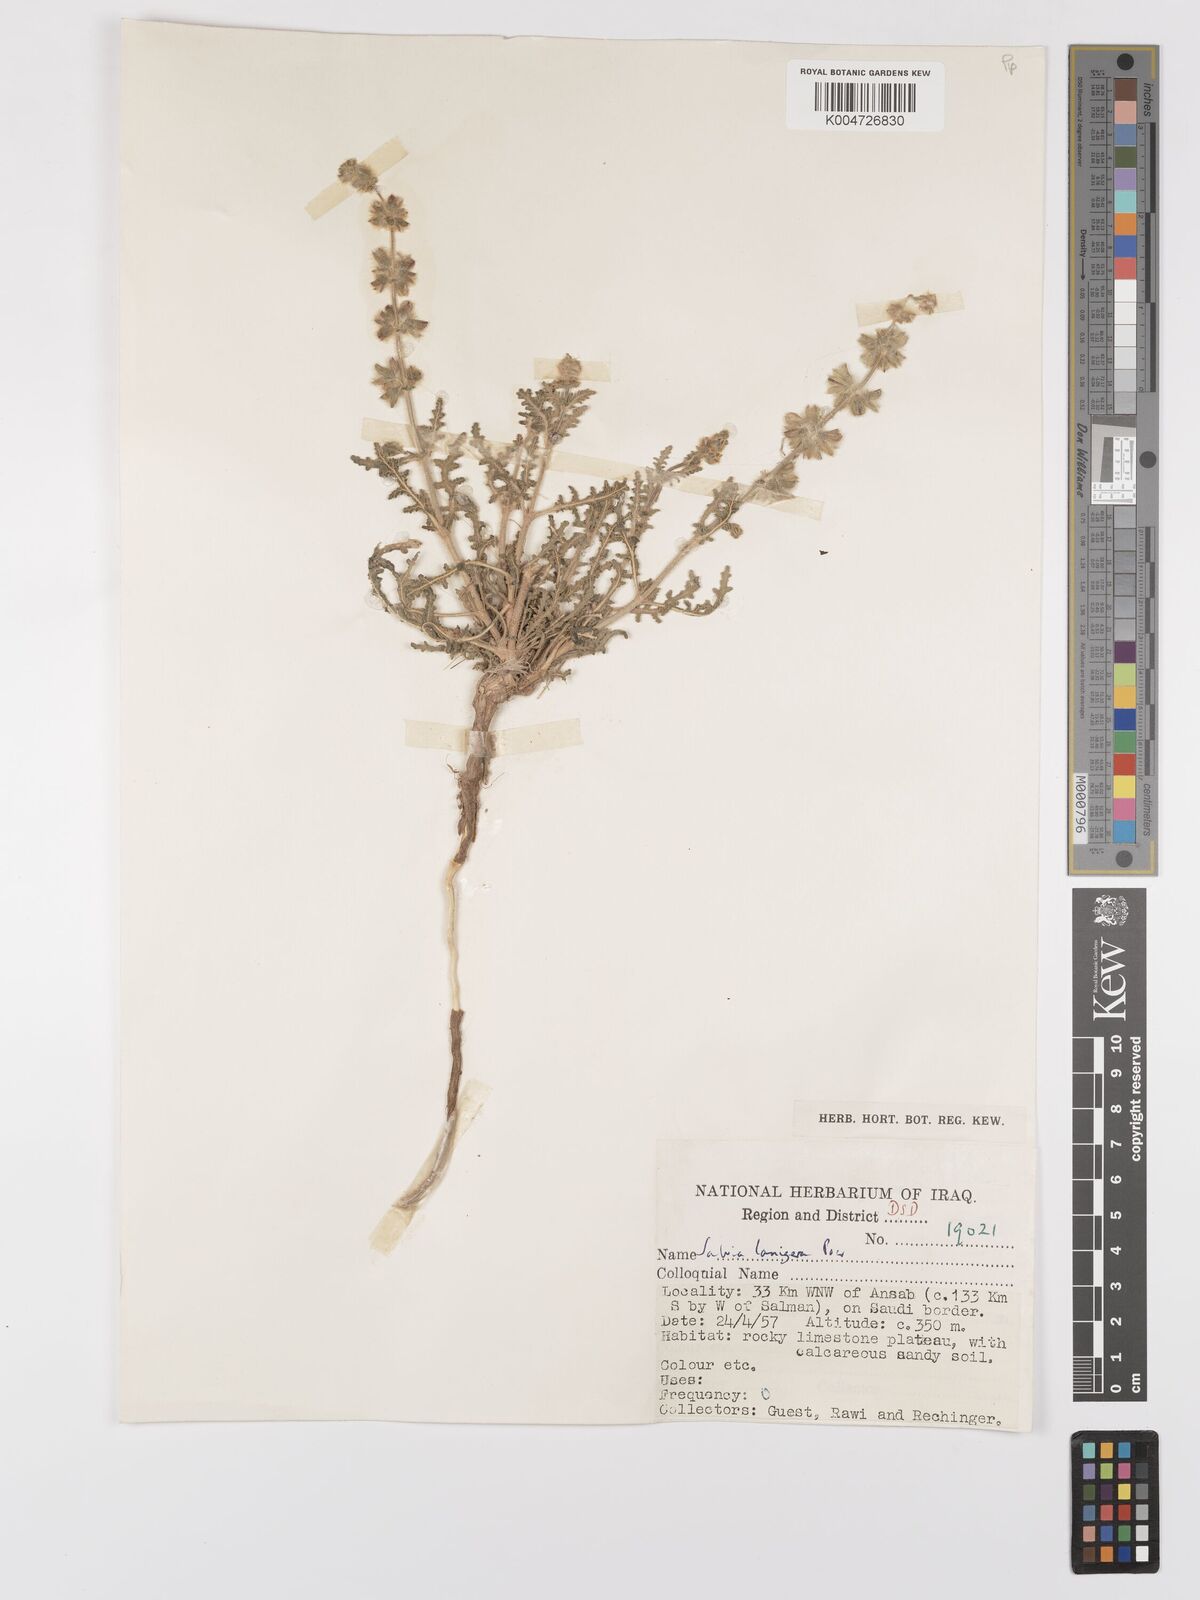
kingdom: Plantae
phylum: Tracheophyta
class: Magnoliopsida
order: Lamiales
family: Lamiaceae
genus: Salvia
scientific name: Salvia
